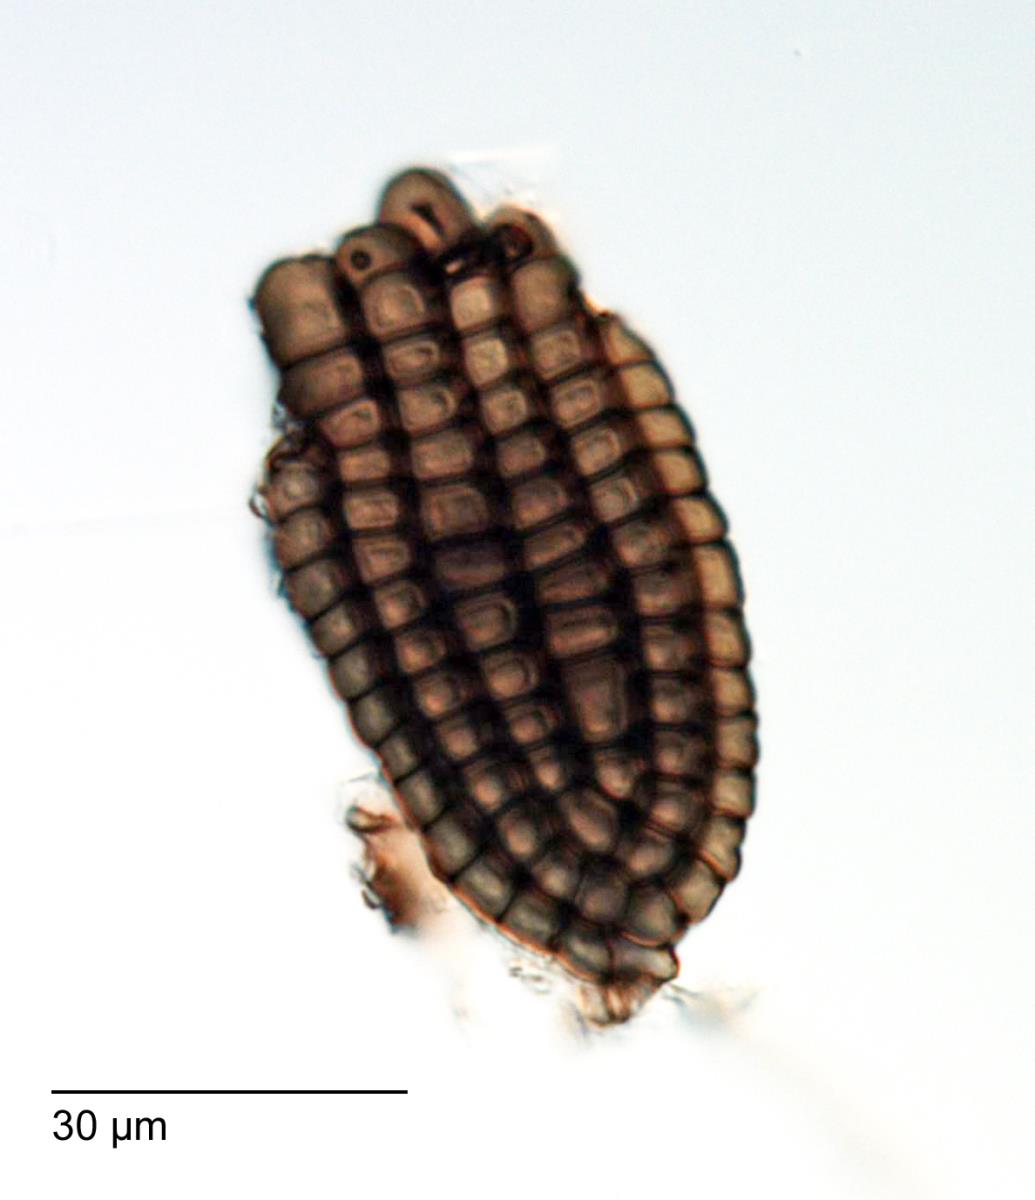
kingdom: Fungi
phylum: Ascomycota
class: Dothideomycetes
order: Pleosporales
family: Dictyosporiaceae
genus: Jalapriya
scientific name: Jalapriya toruloides
